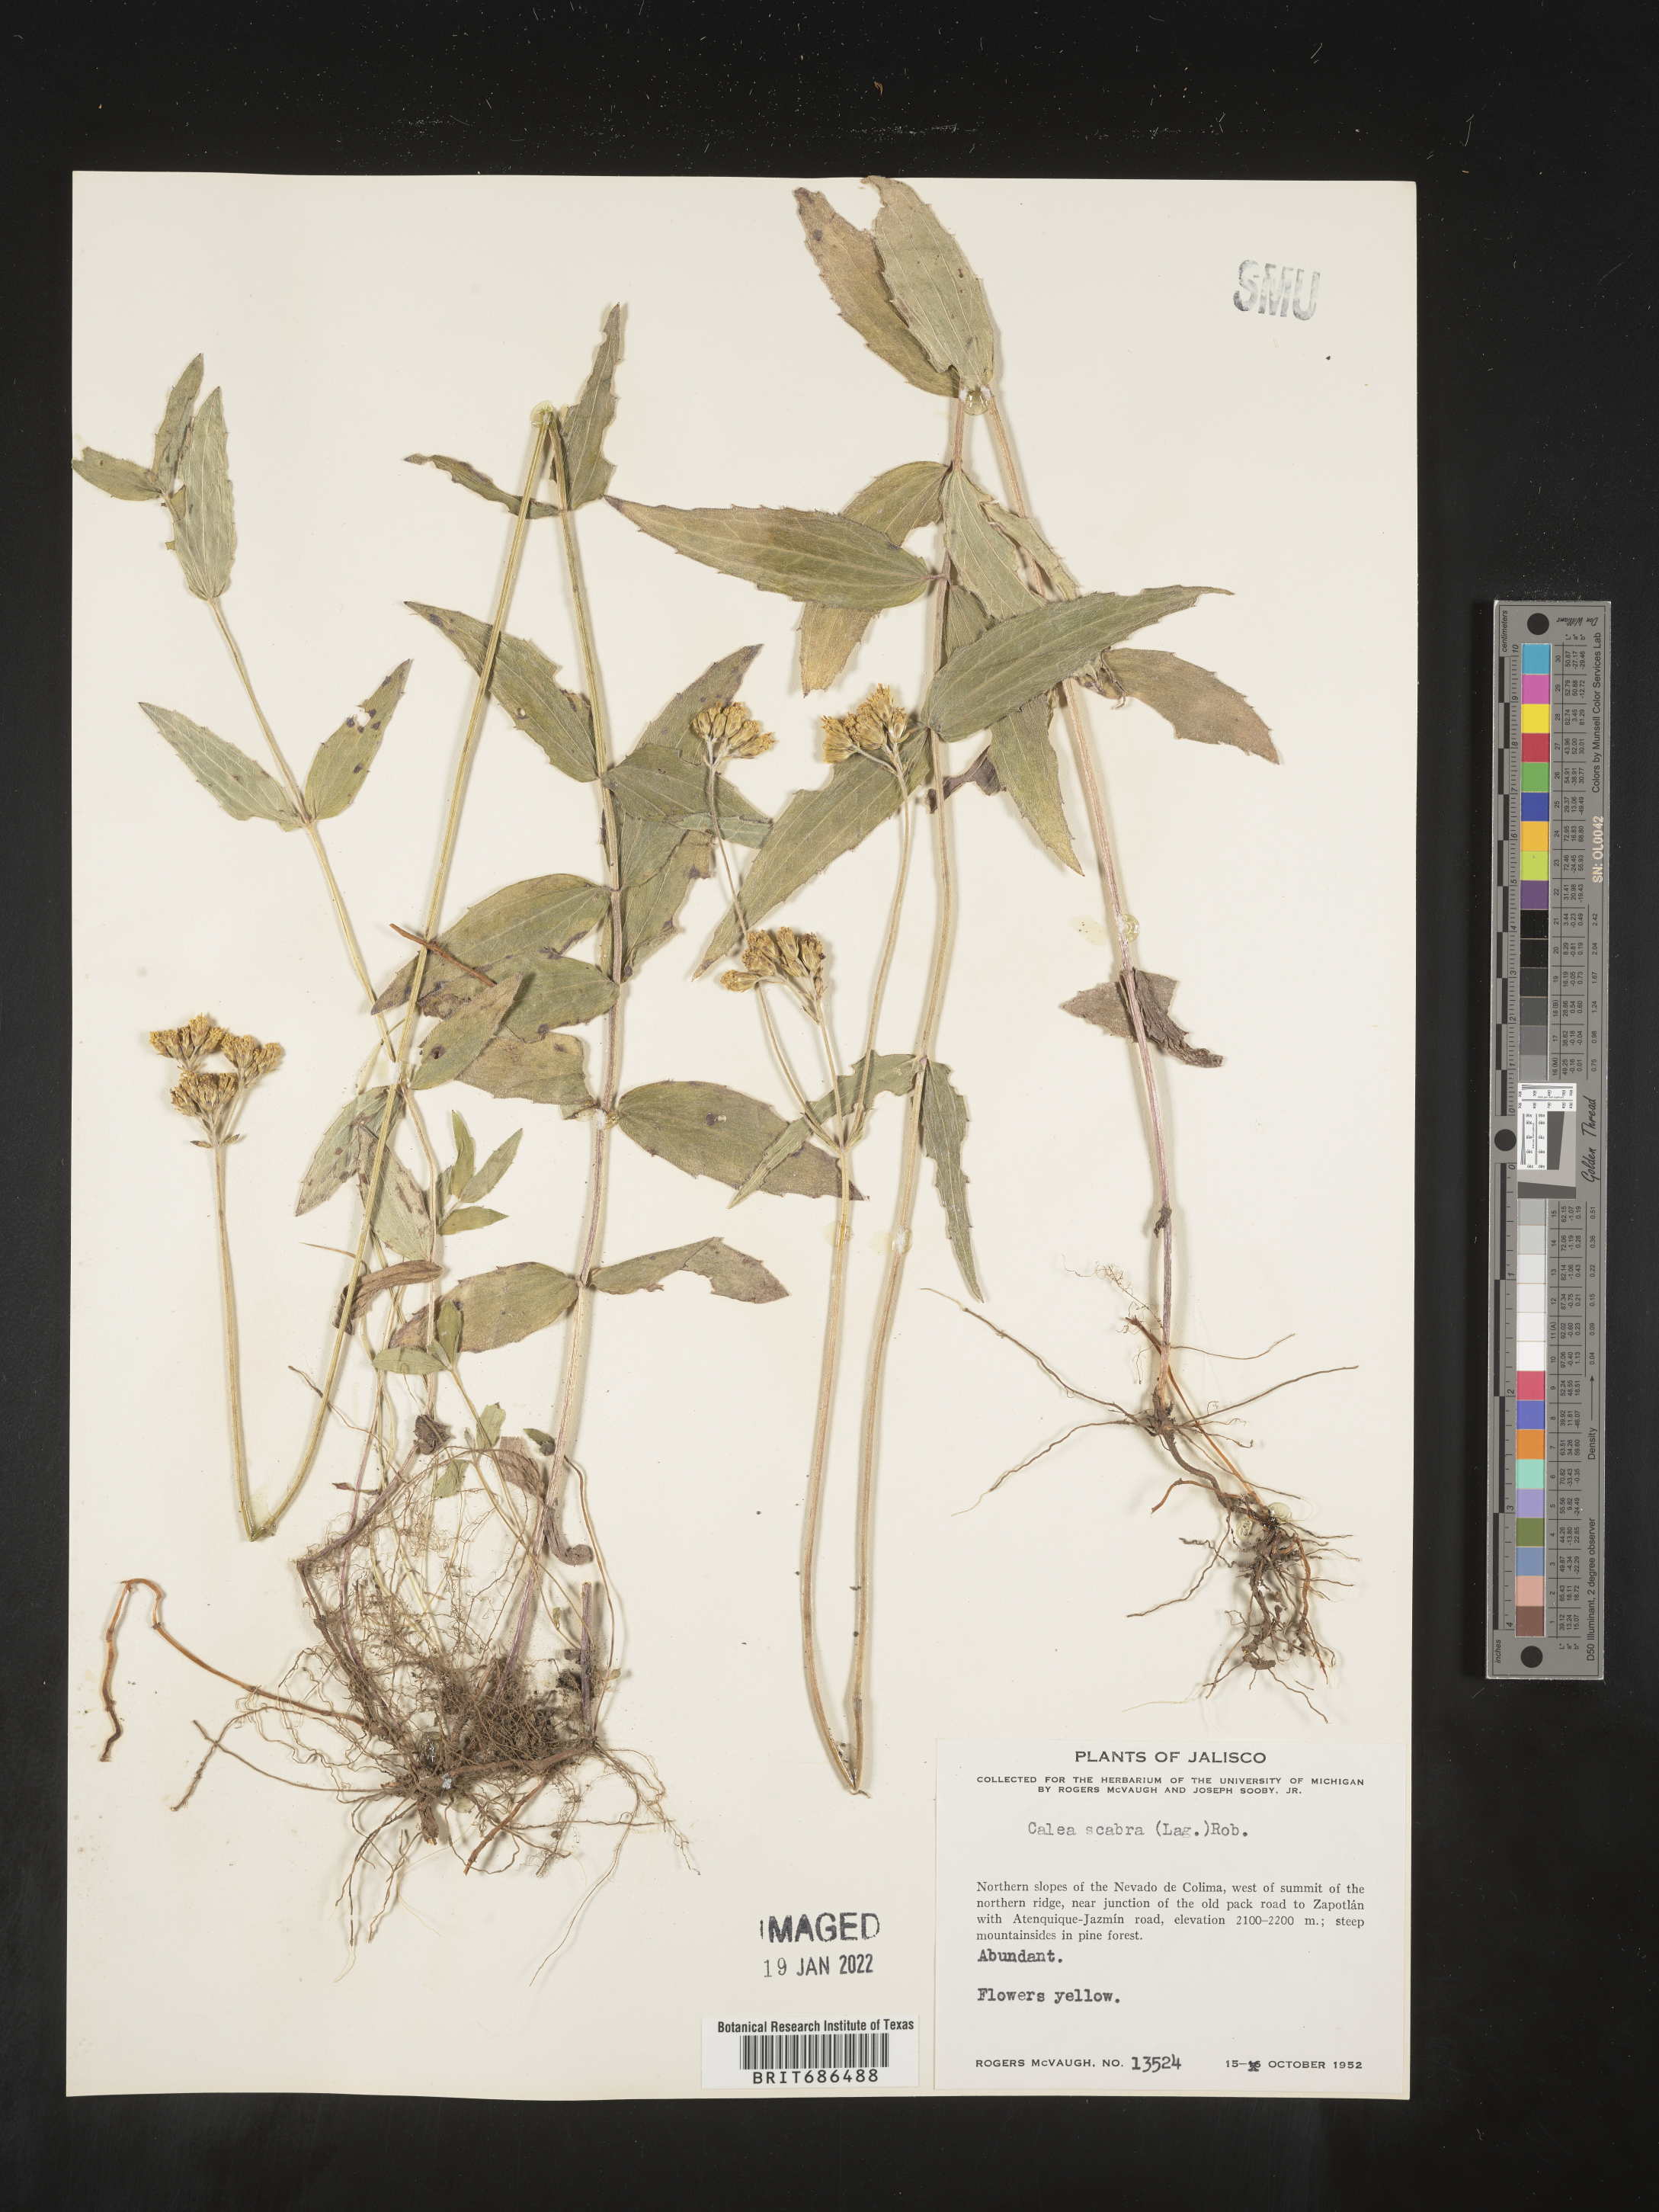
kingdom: Plantae
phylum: Tracheophyta
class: Magnoliopsida
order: Asterales
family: Asteraceae
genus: Alloispermum
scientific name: Alloispermum scabrum
